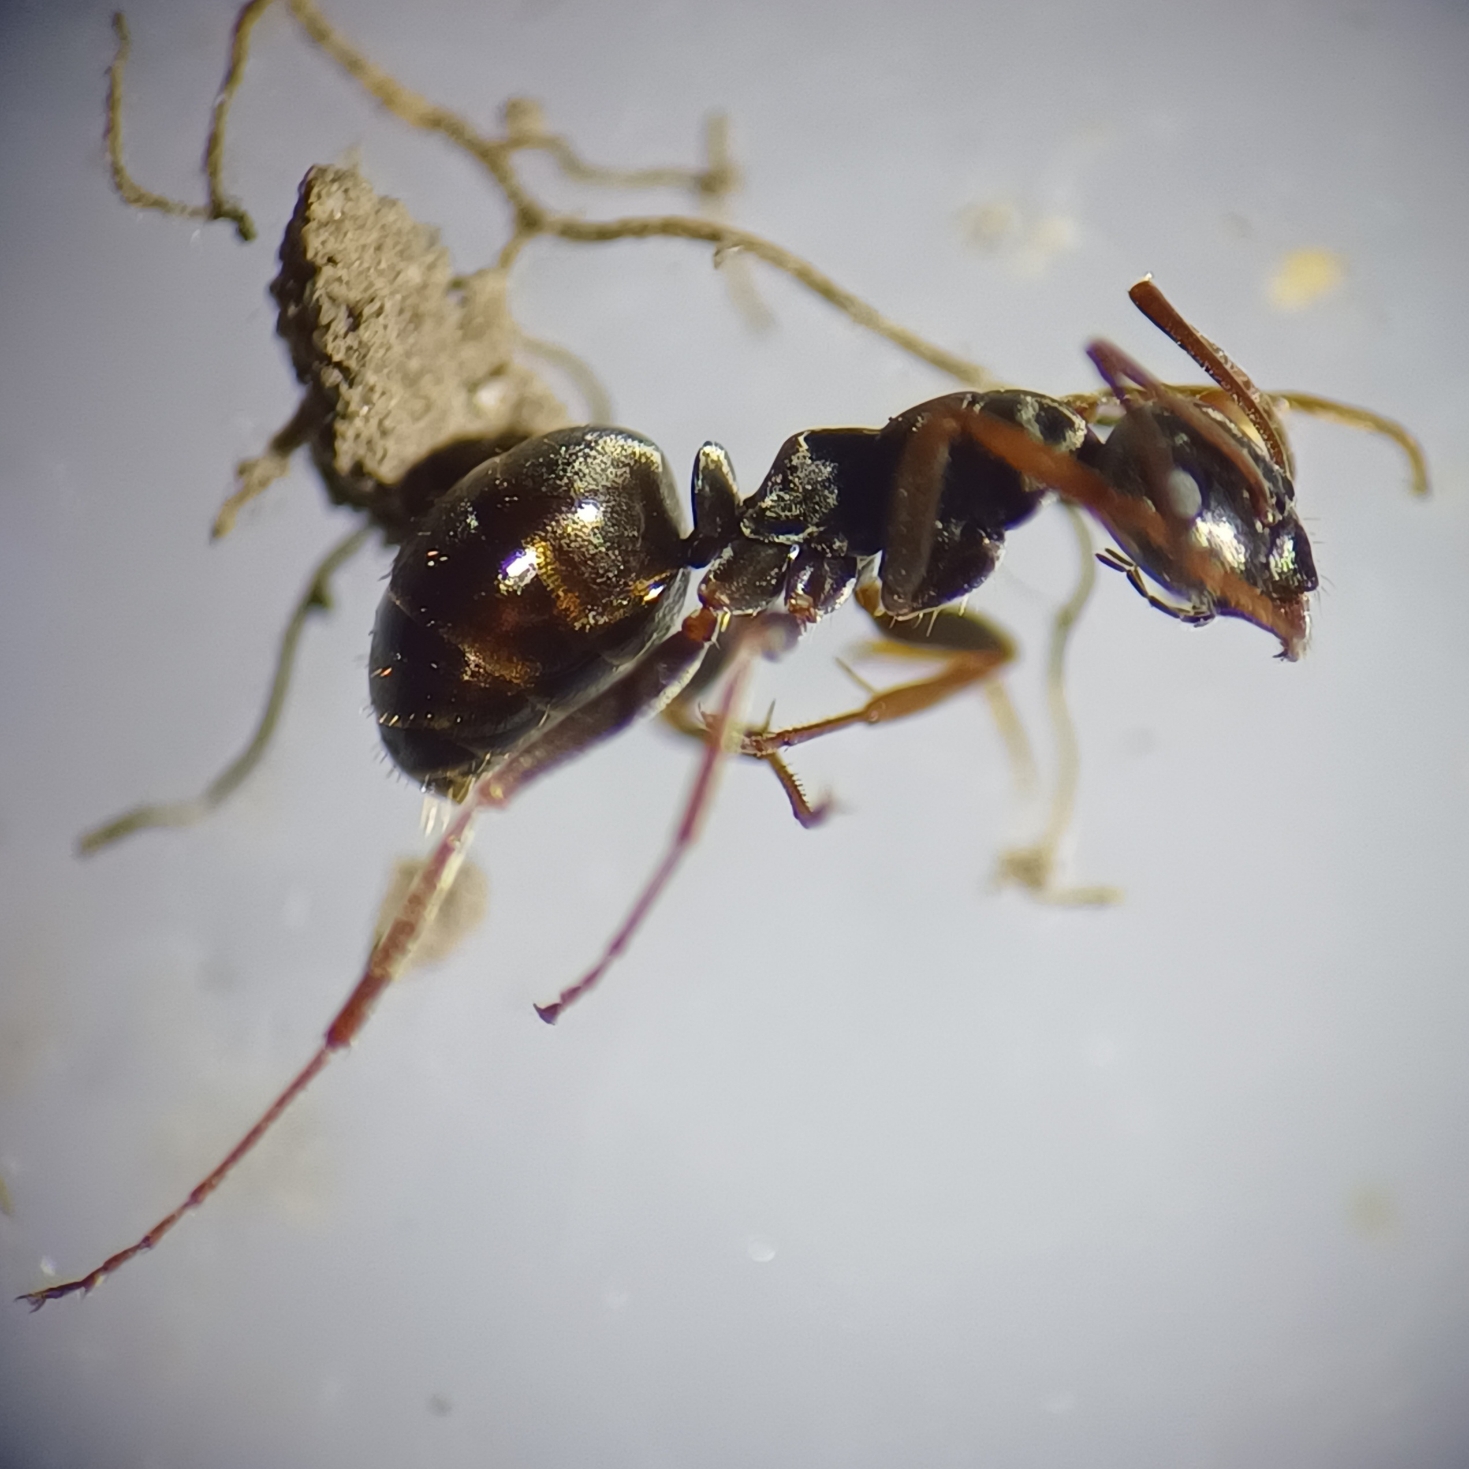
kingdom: Animalia
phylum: Arthropoda
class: Insecta
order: Hymenoptera
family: Formicidae
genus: Formica
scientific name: Formica fusca
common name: Sort slavemyre
